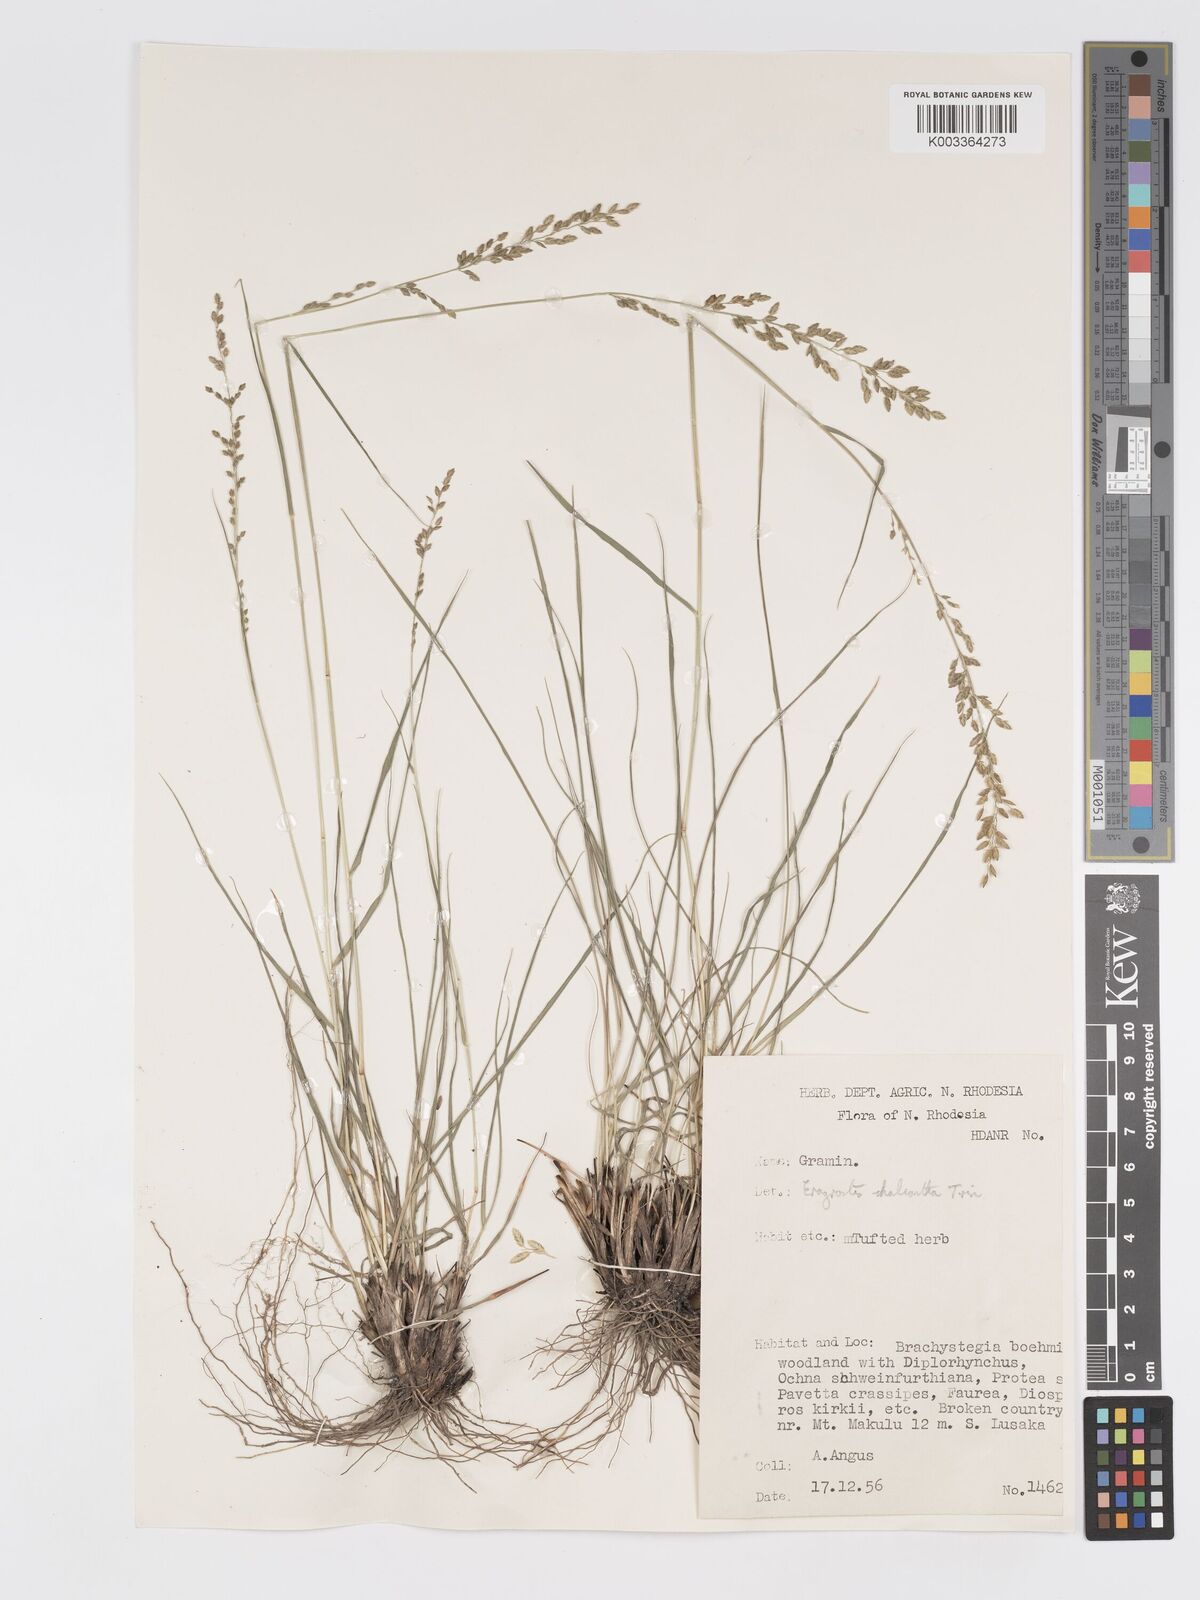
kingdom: Plantae
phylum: Tracheophyta
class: Liliopsida
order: Poales
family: Poaceae
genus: Eragrostis
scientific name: Eragrostis racemosa
